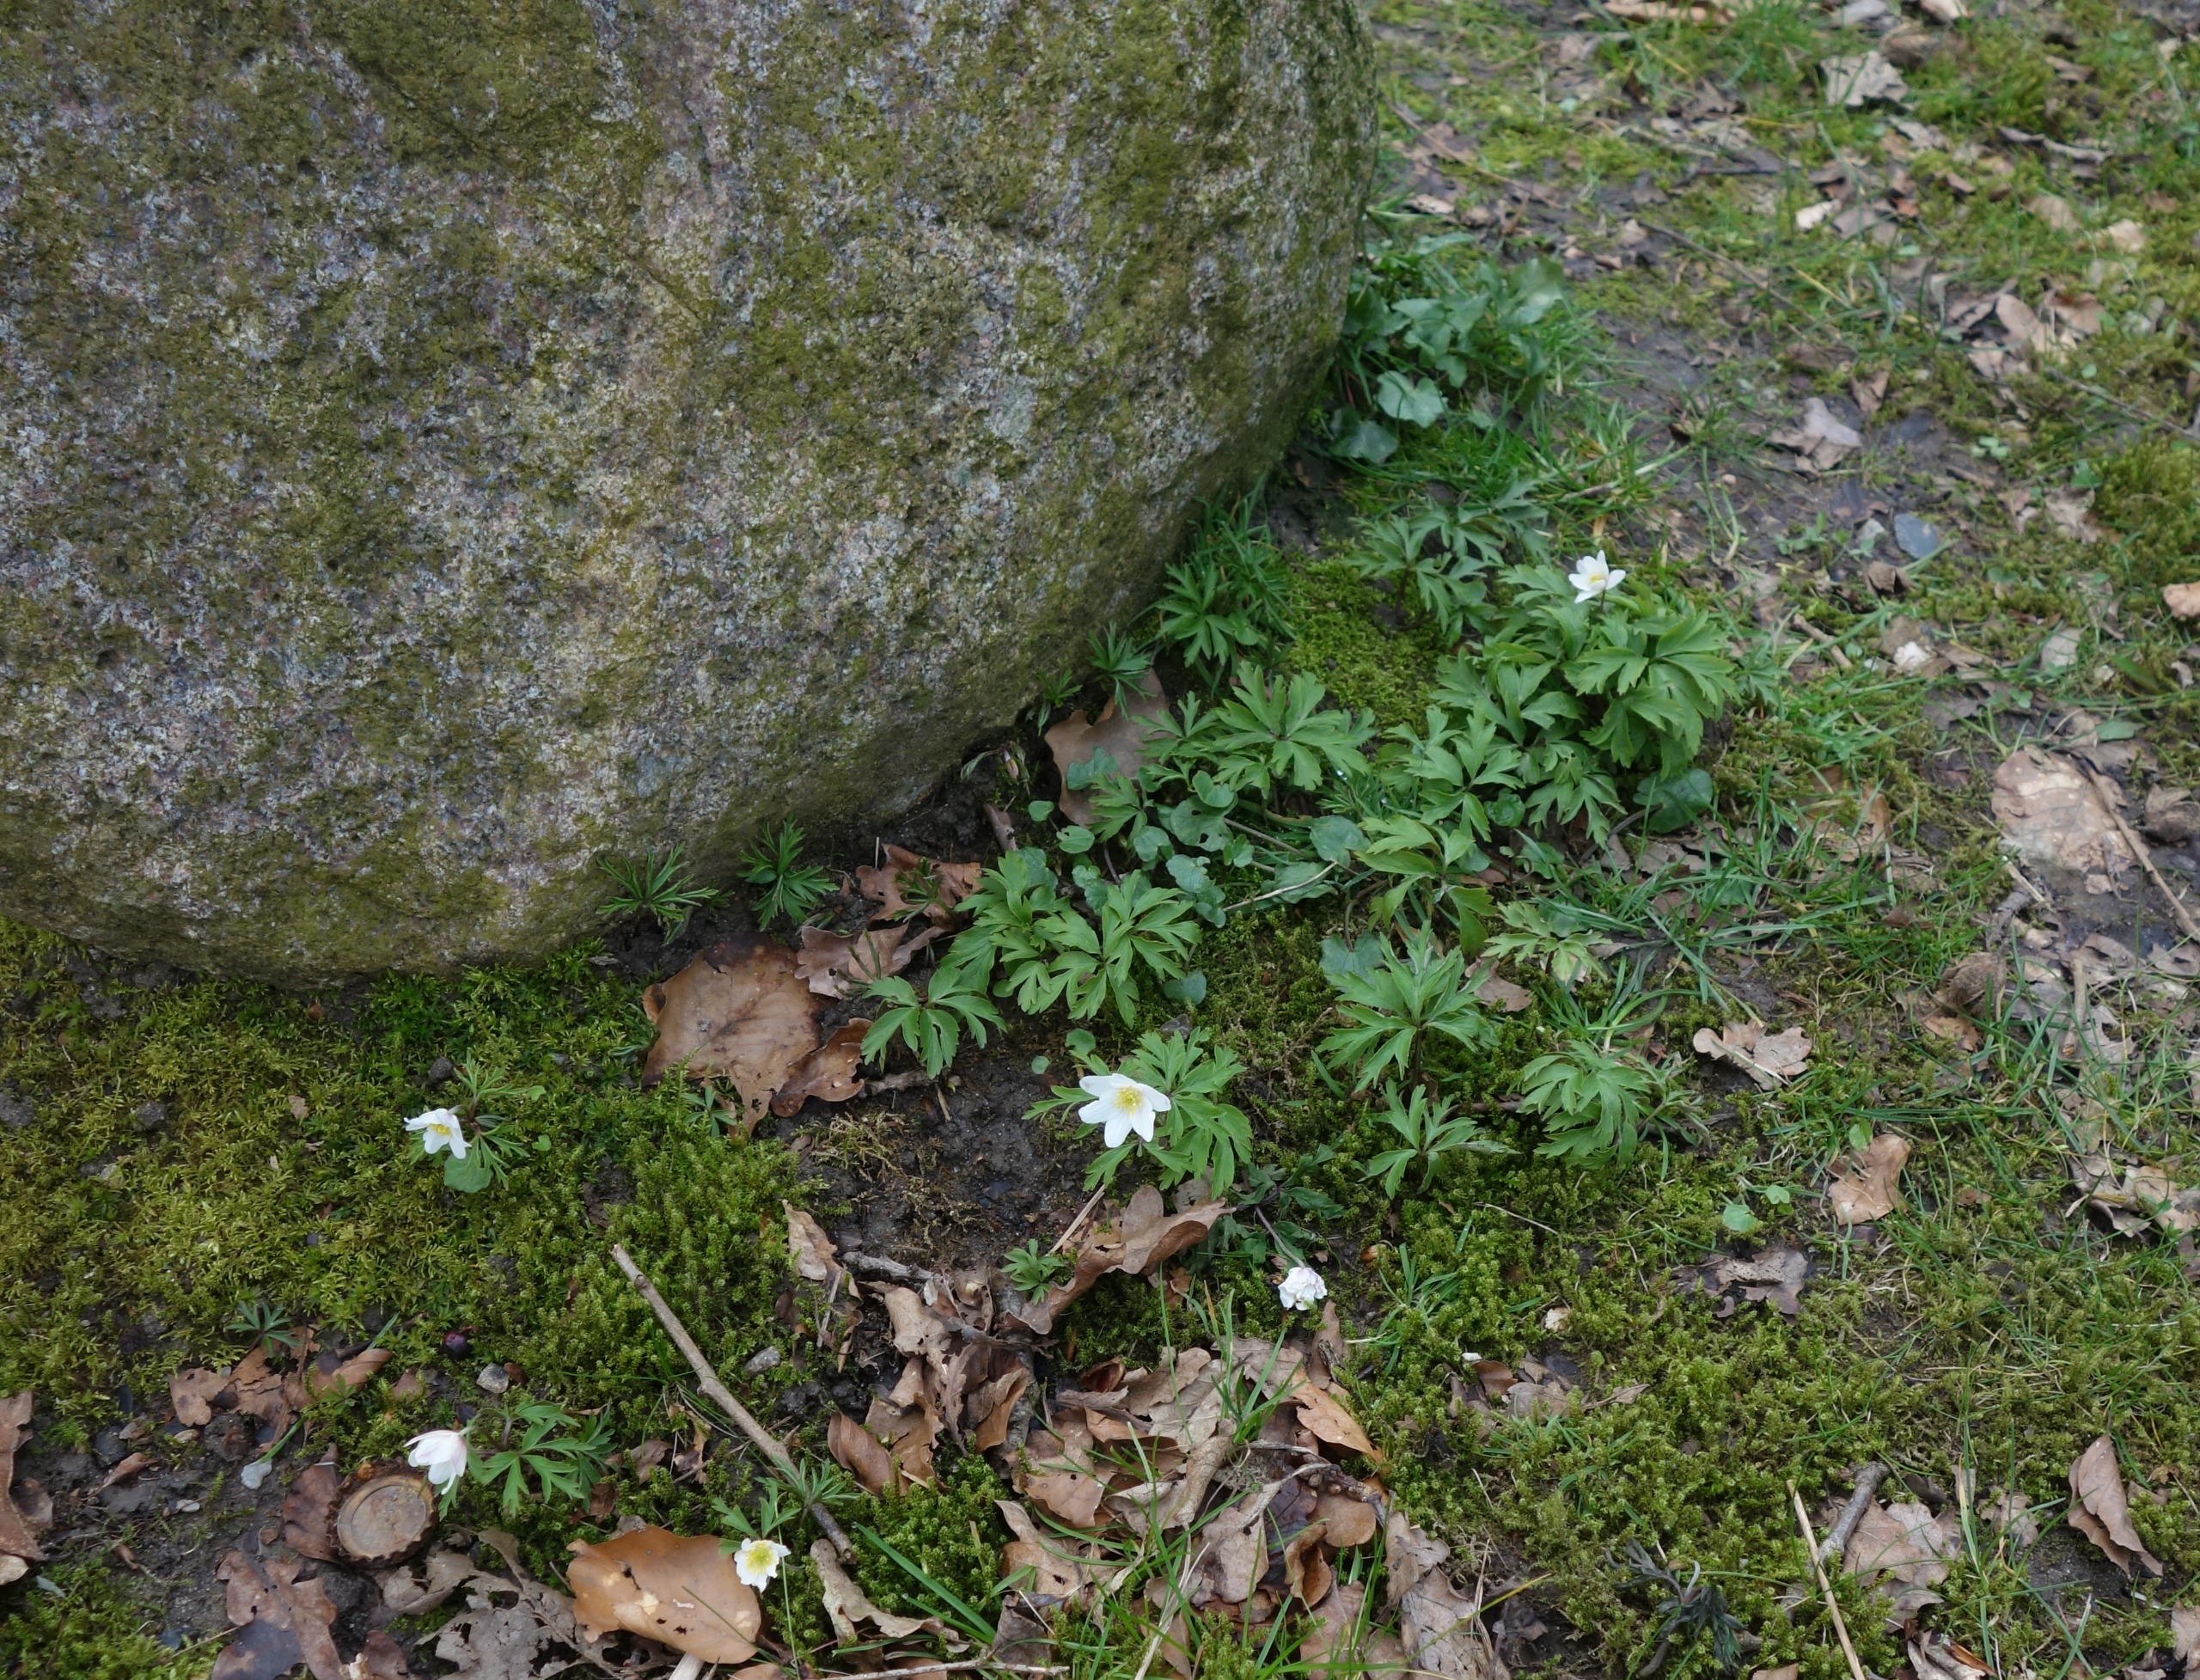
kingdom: Plantae
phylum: Tracheophyta
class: Magnoliopsida
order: Ranunculales
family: Ranunculaceae
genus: Anemone
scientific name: Anemone nemorosa
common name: Hvid anemone
